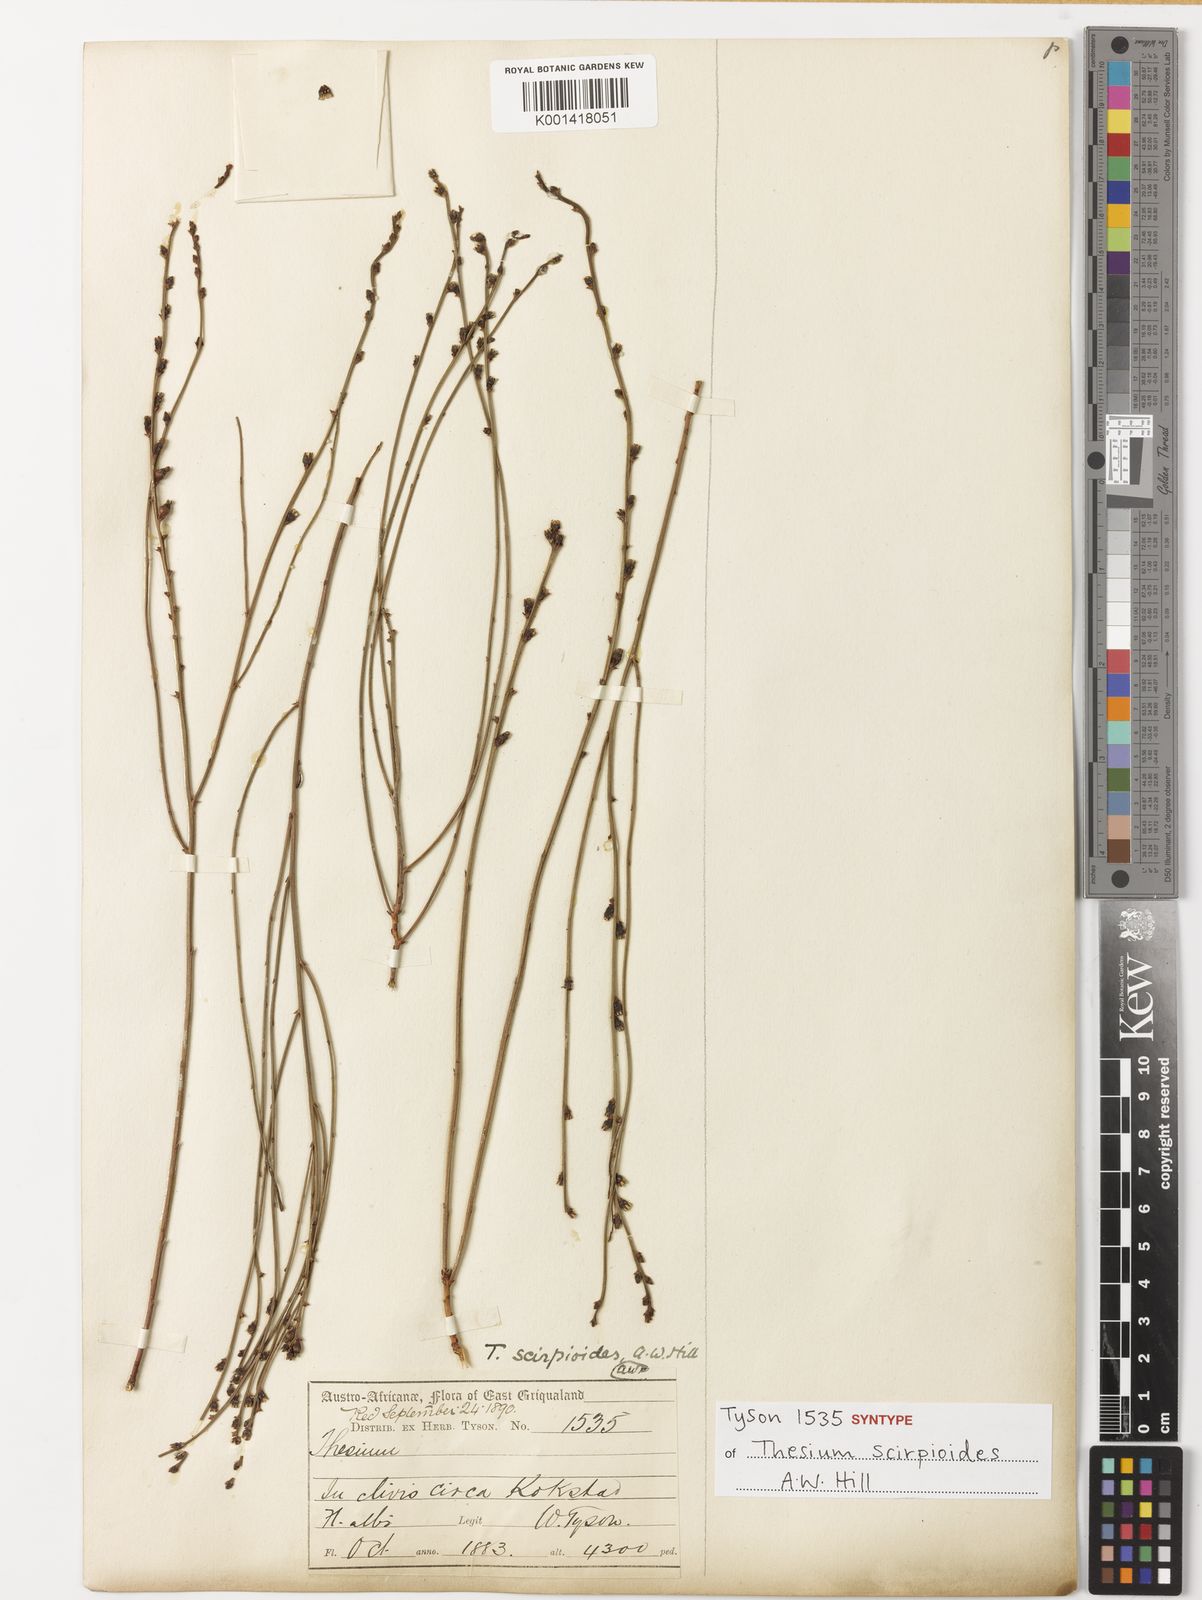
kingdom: Plantae
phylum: Tracheophyta
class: Magnoliopsida
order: Santalales
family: Thesiaceae
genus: Thesium
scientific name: Thesium
